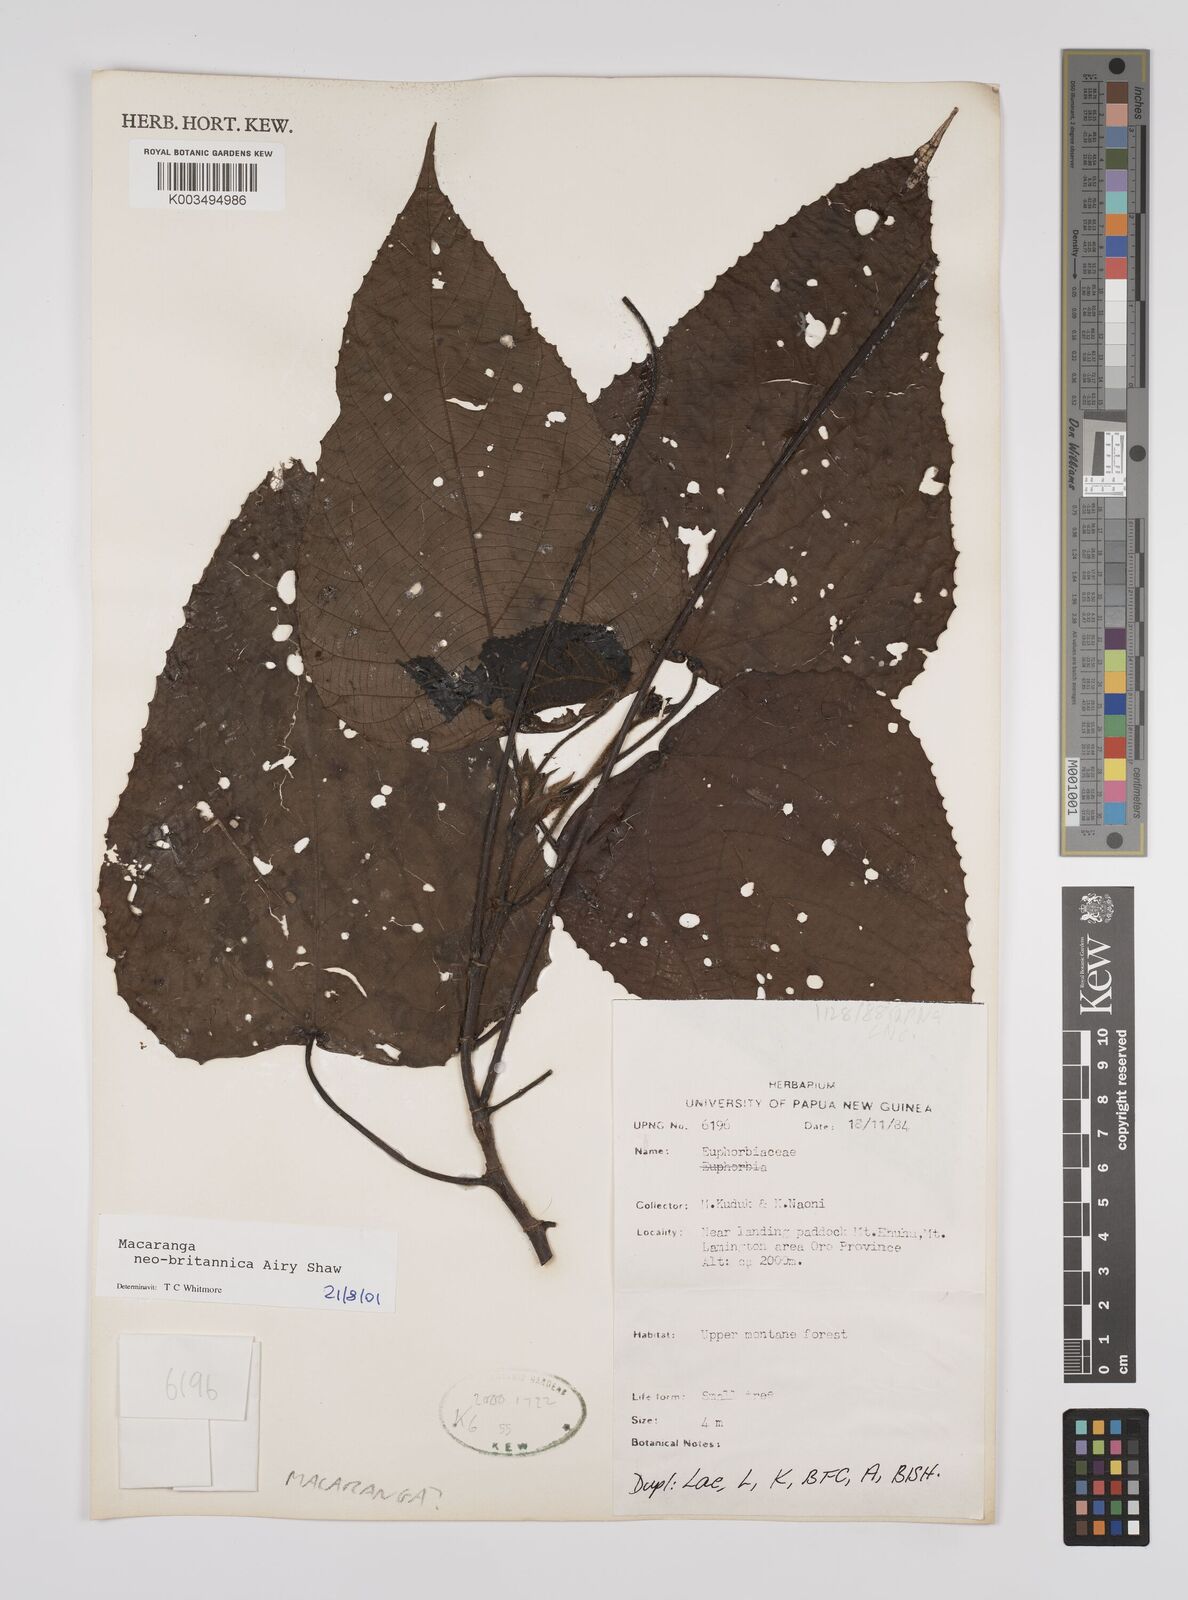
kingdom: Plantae
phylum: Tracheophyta
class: Magnoliopsida
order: Malpighiales
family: Euphorbiaceae
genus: Macaranga
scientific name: Macaranga neobritannica
